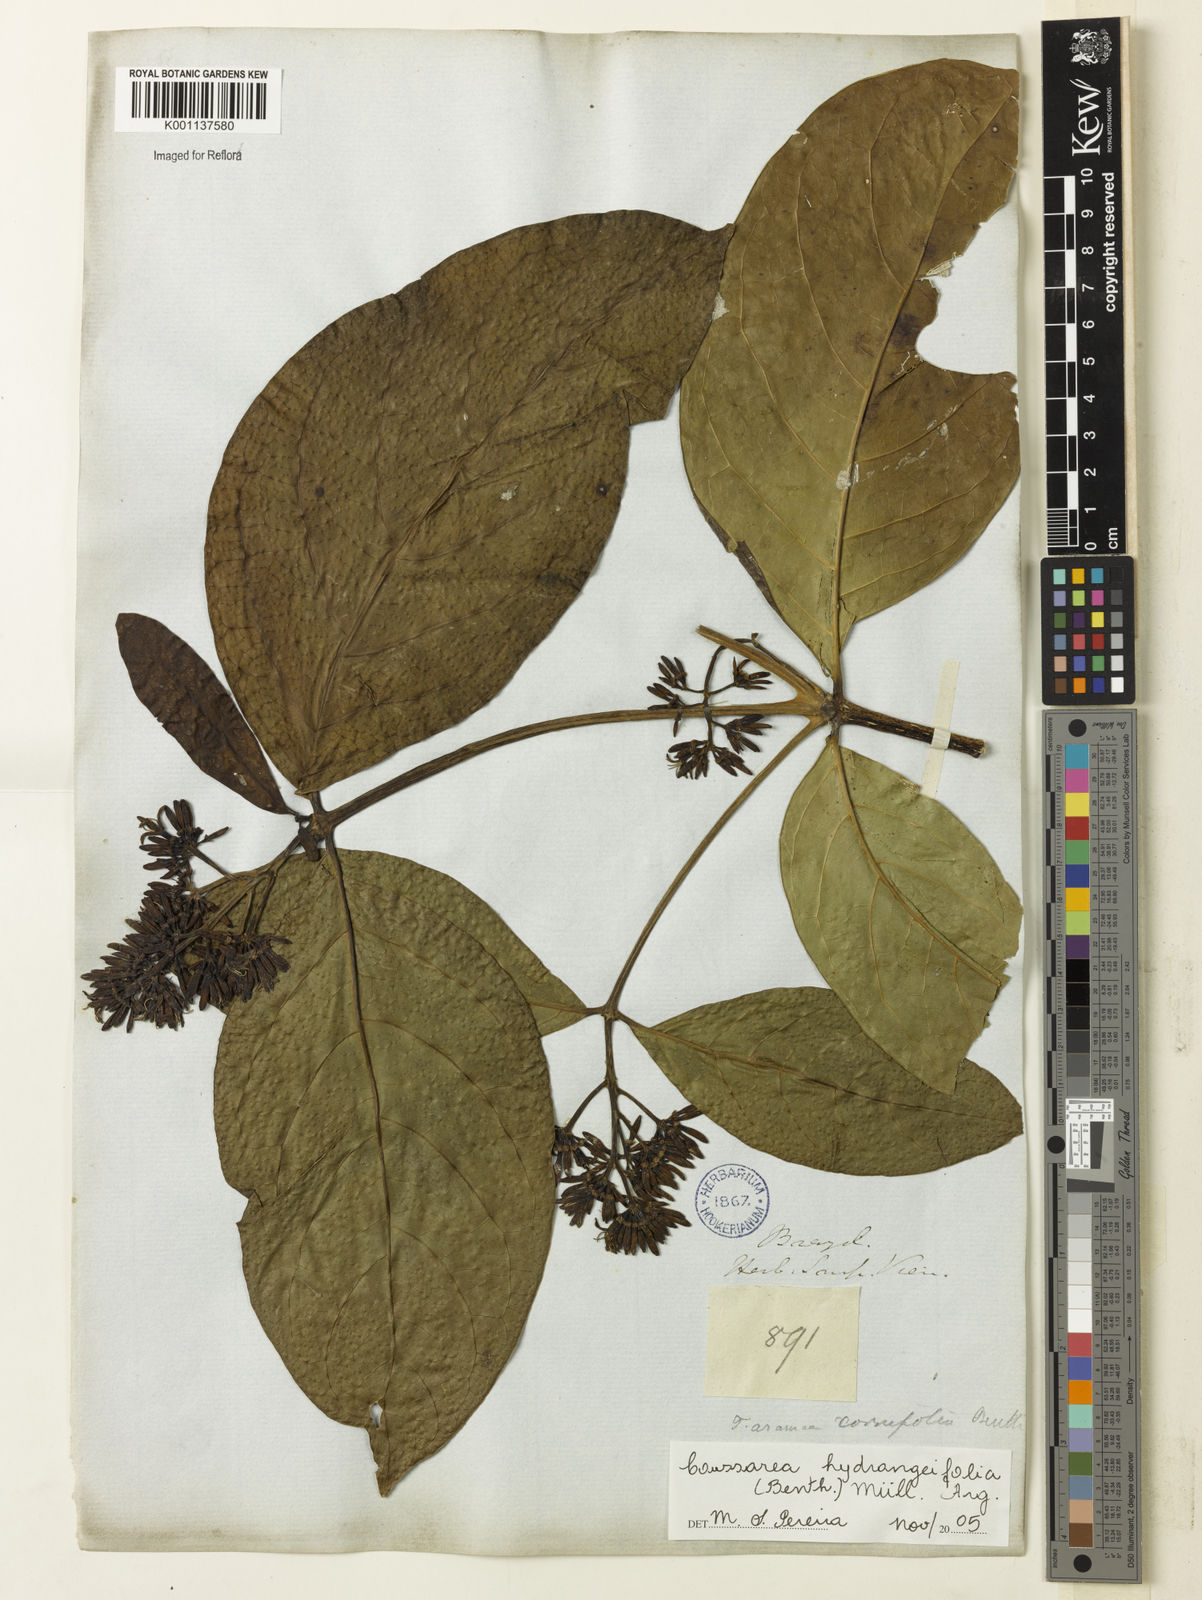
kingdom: Plantae
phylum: Tracheophyta
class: Magnoliopsida
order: Gentianales
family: Rubiaceae
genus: Coussarea
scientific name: Coussarea
